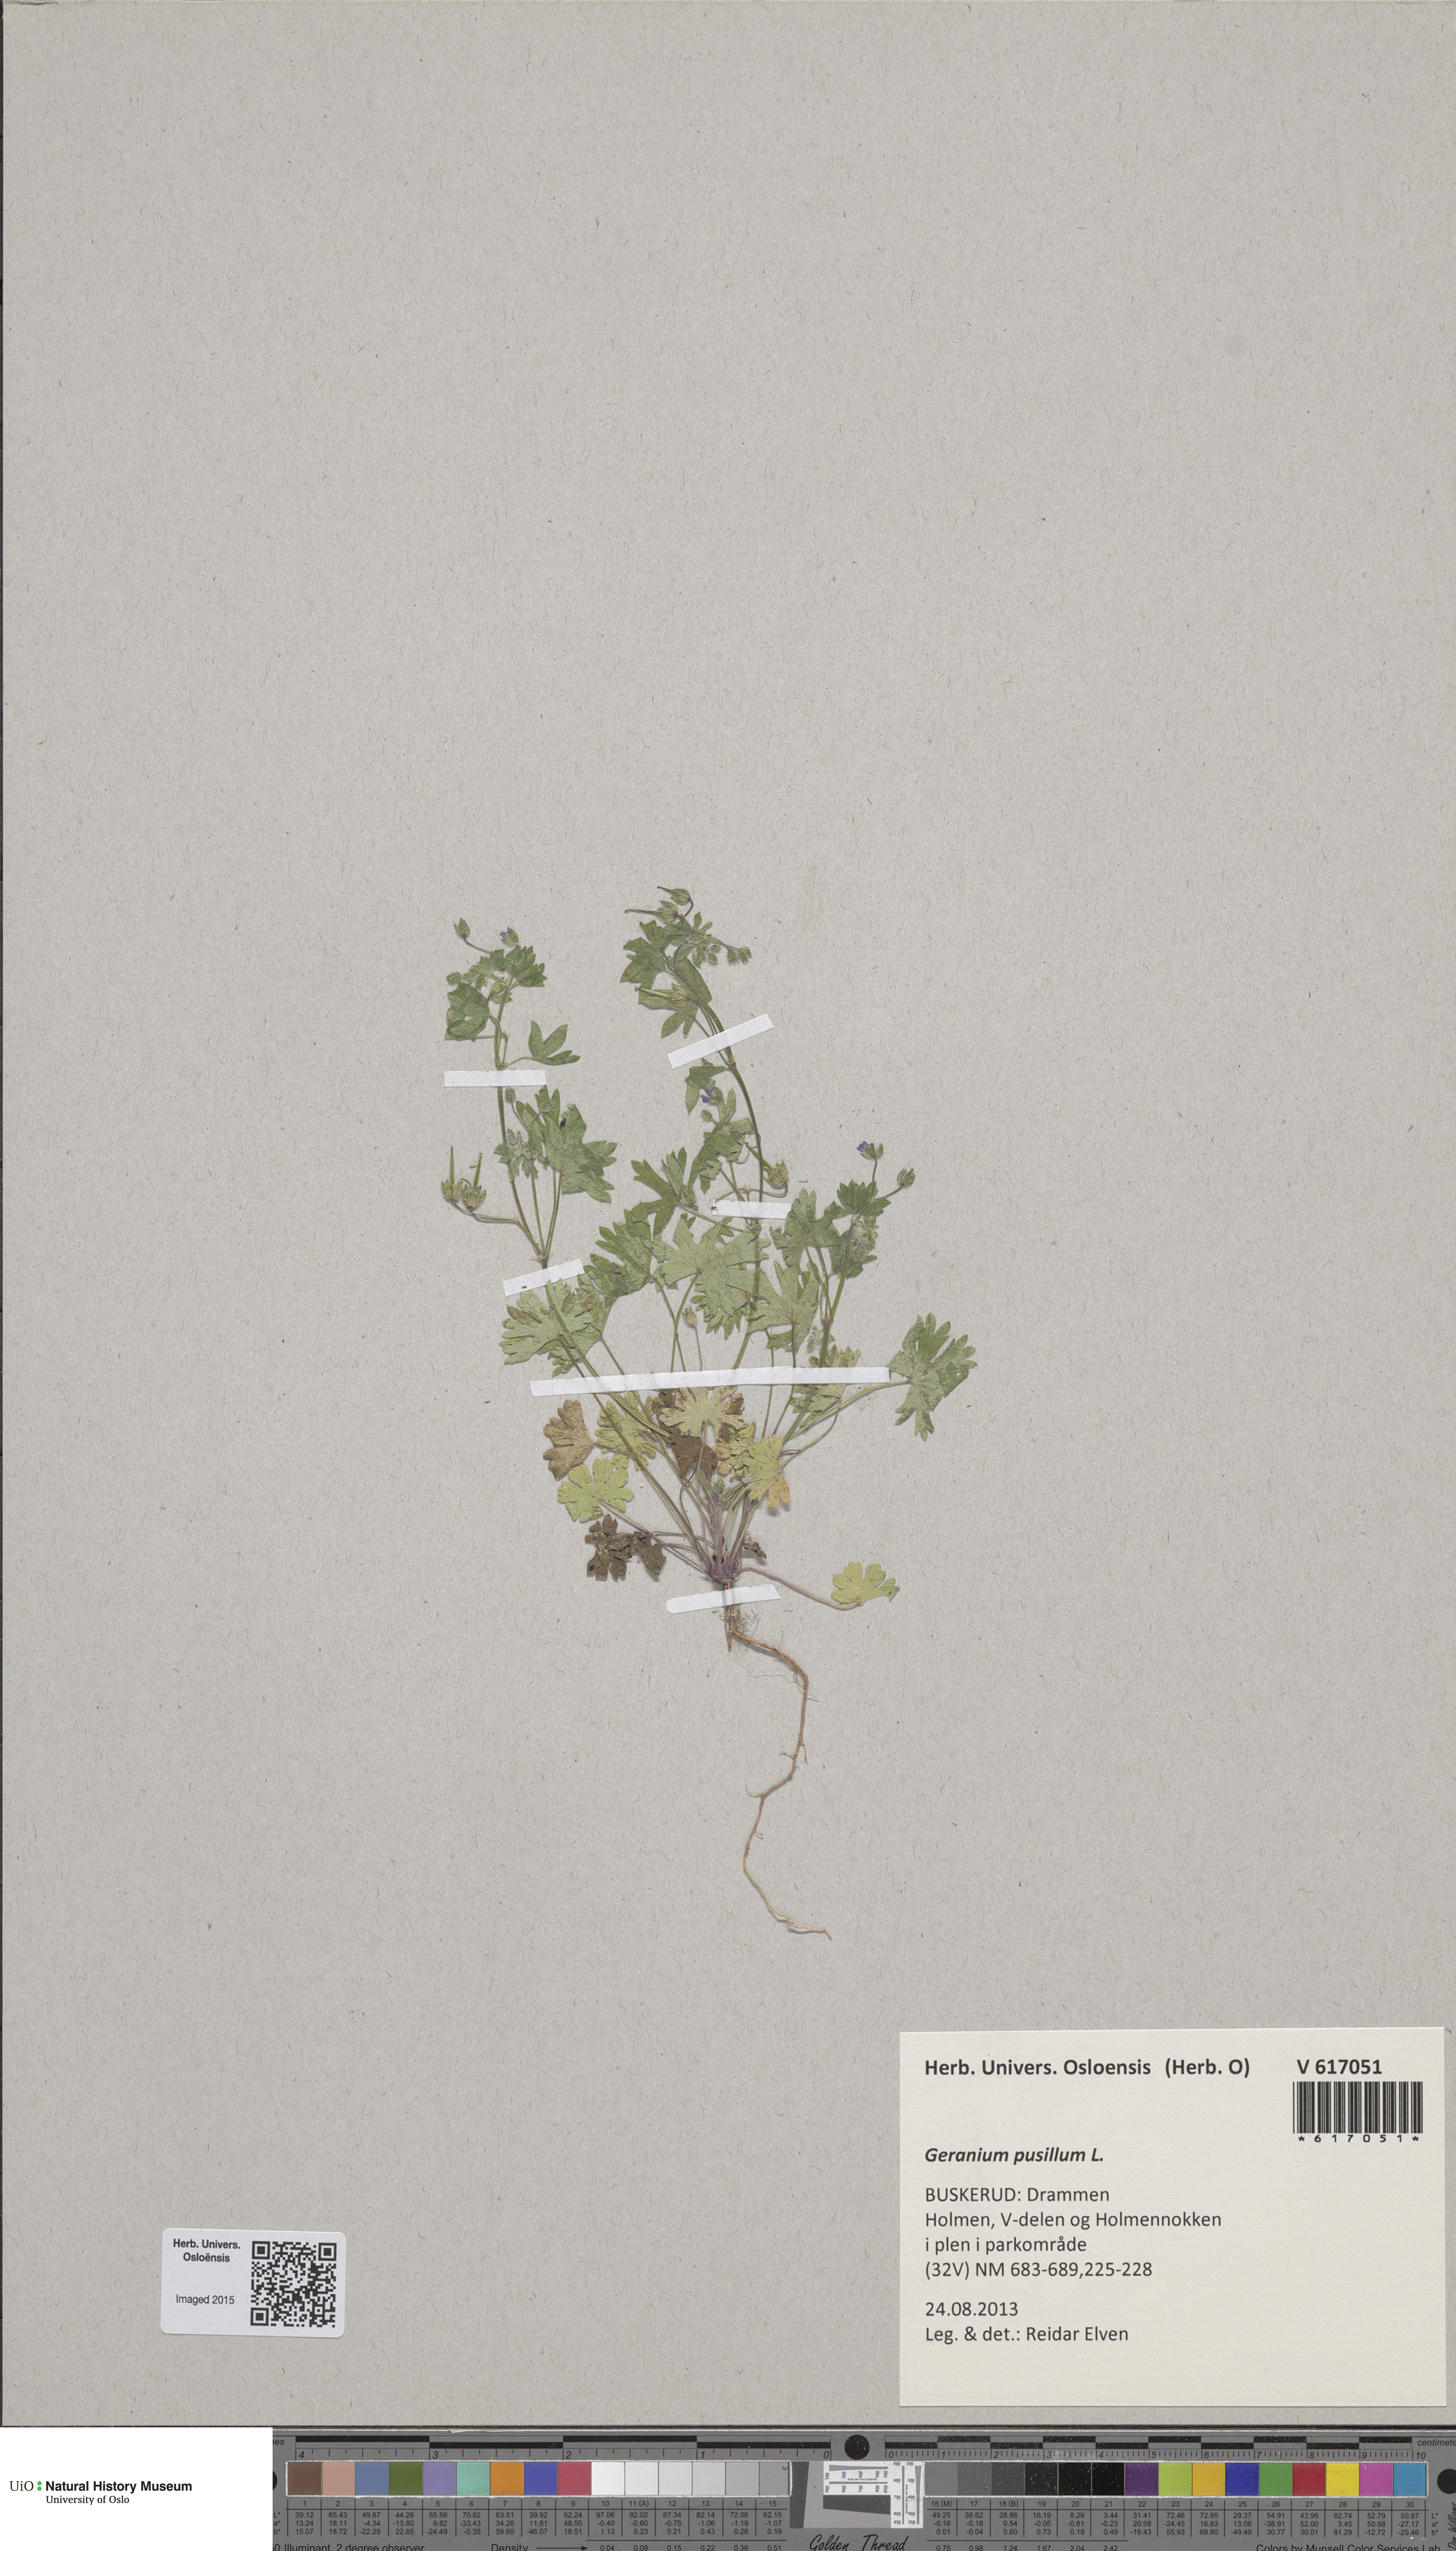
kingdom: Plantae
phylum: Tracheophyta
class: Magnoliopsida
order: Geraniales
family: Geraniaceae
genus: Geranium
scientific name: Geranium pusillum
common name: Small geranium
